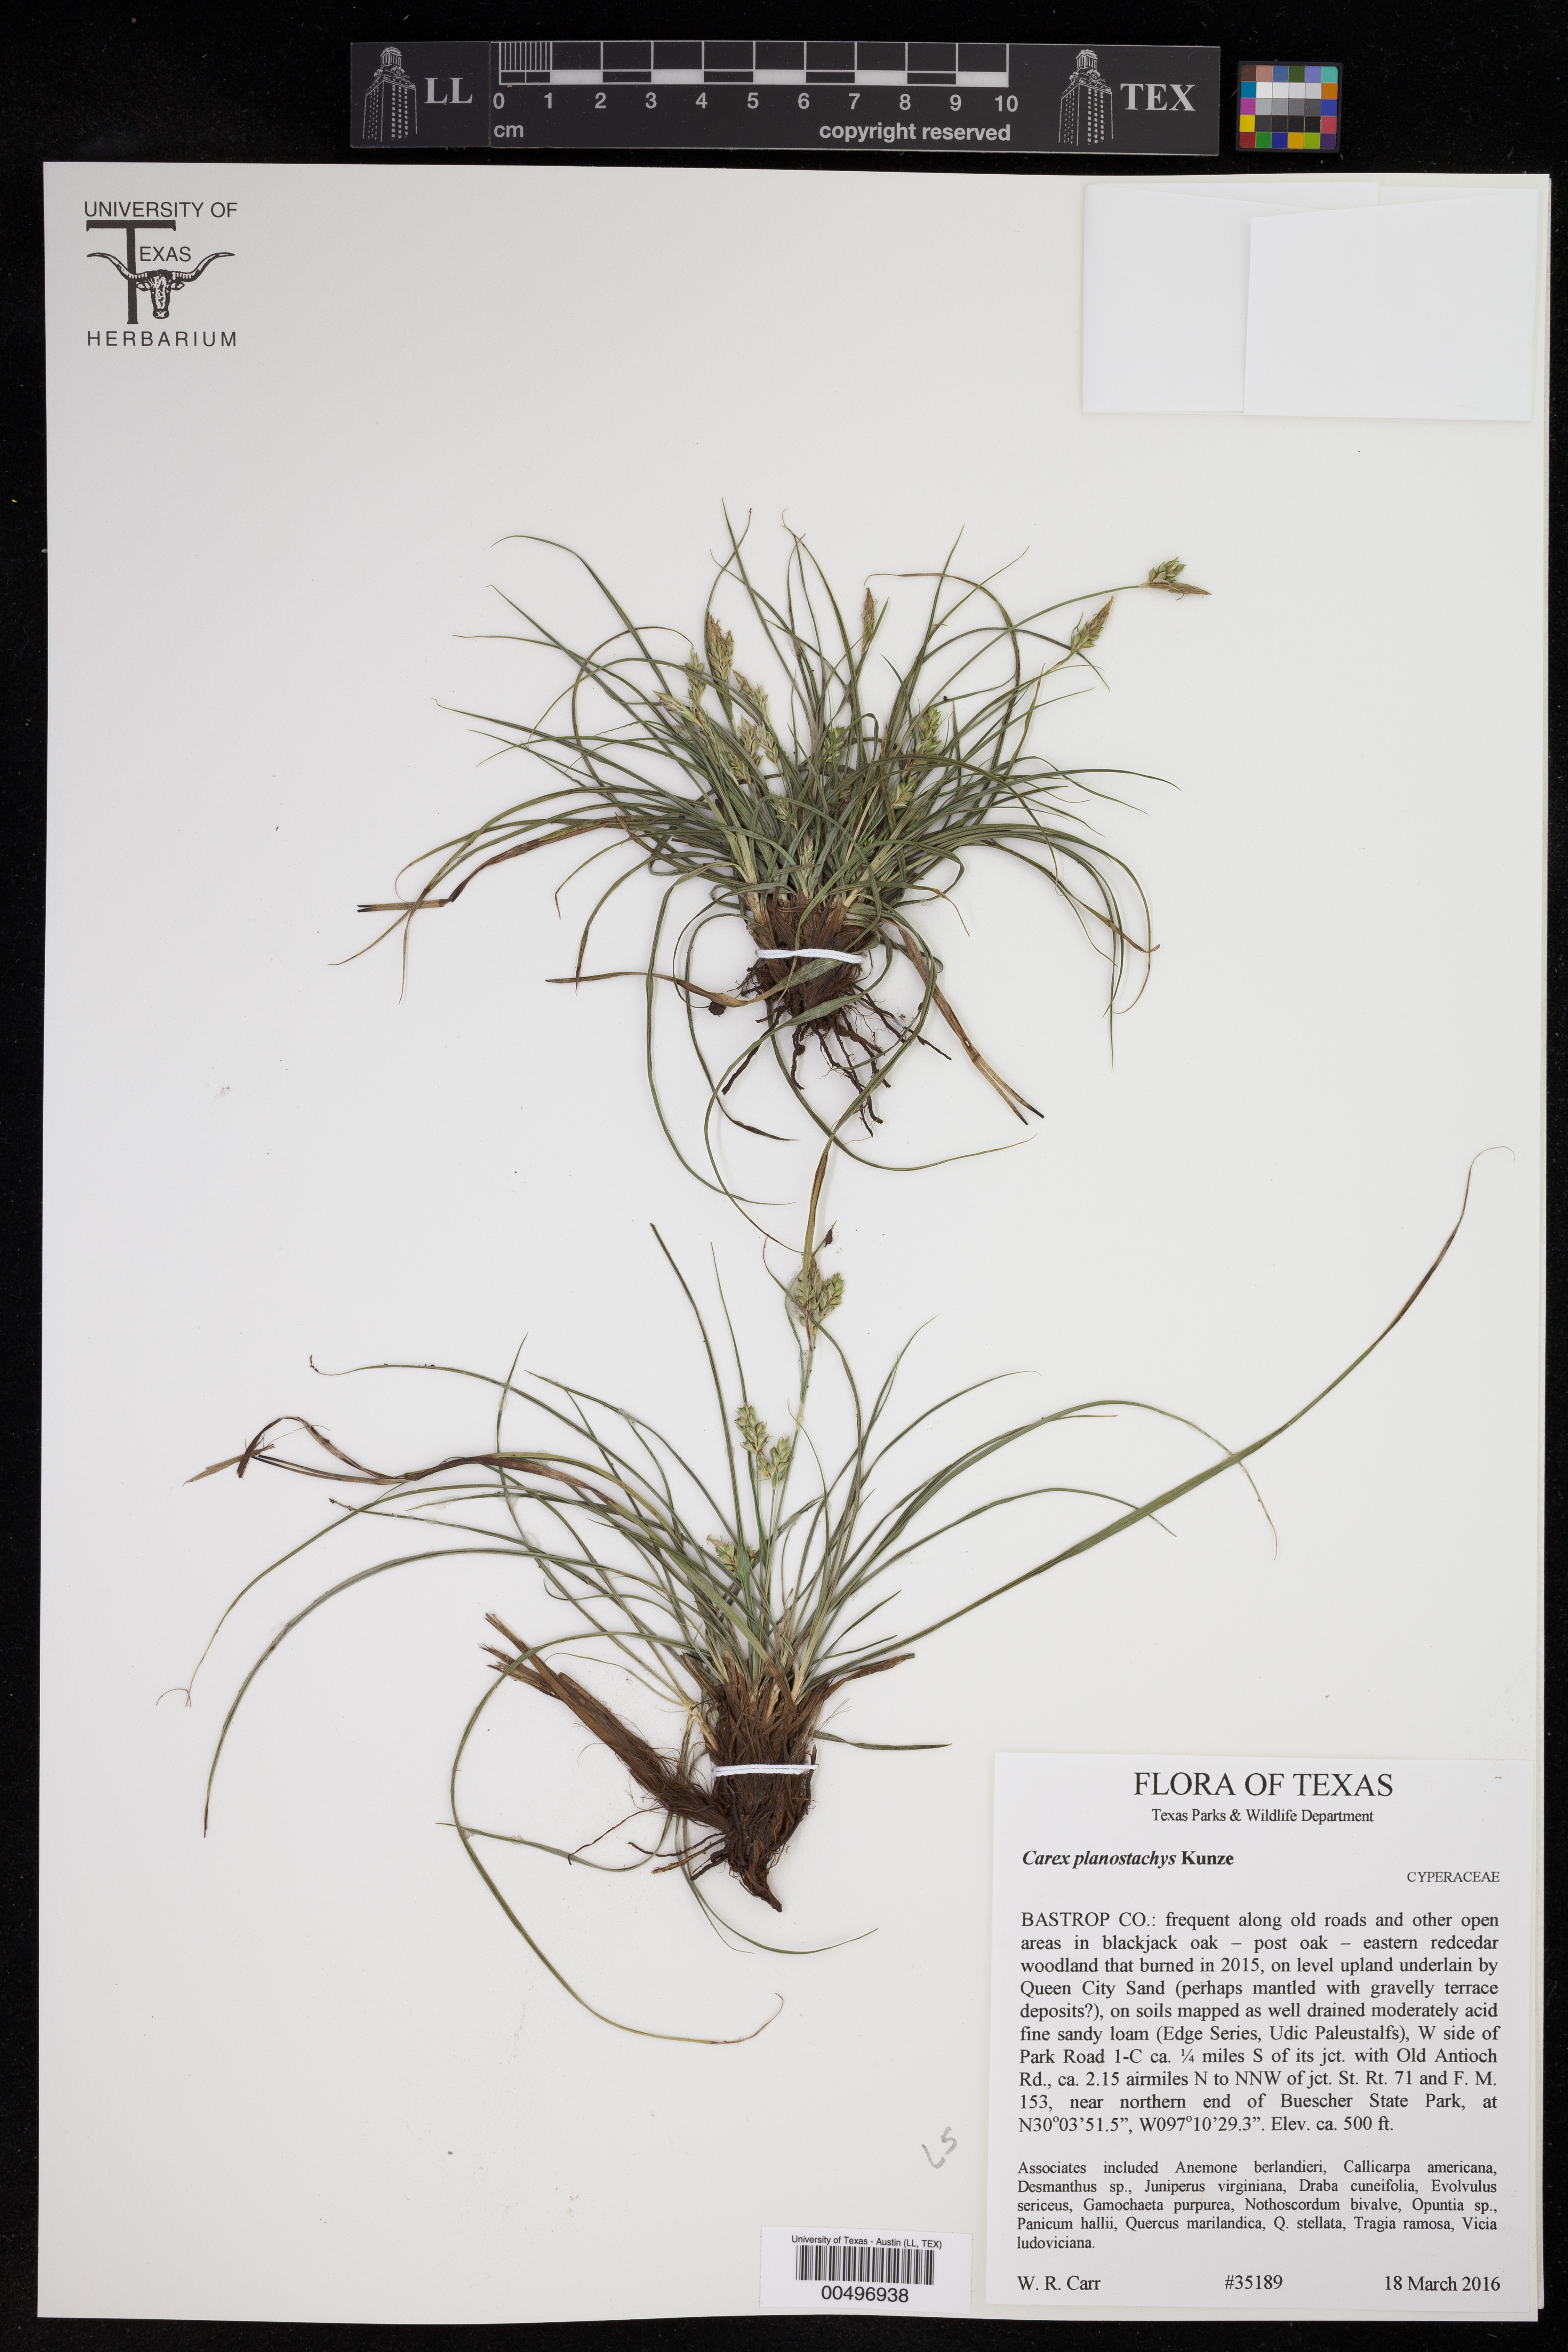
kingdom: Plantae
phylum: Tracheophyta
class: Liliopsida
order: Poales
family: Cyperaceae
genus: Carex
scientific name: Carex planostachys
